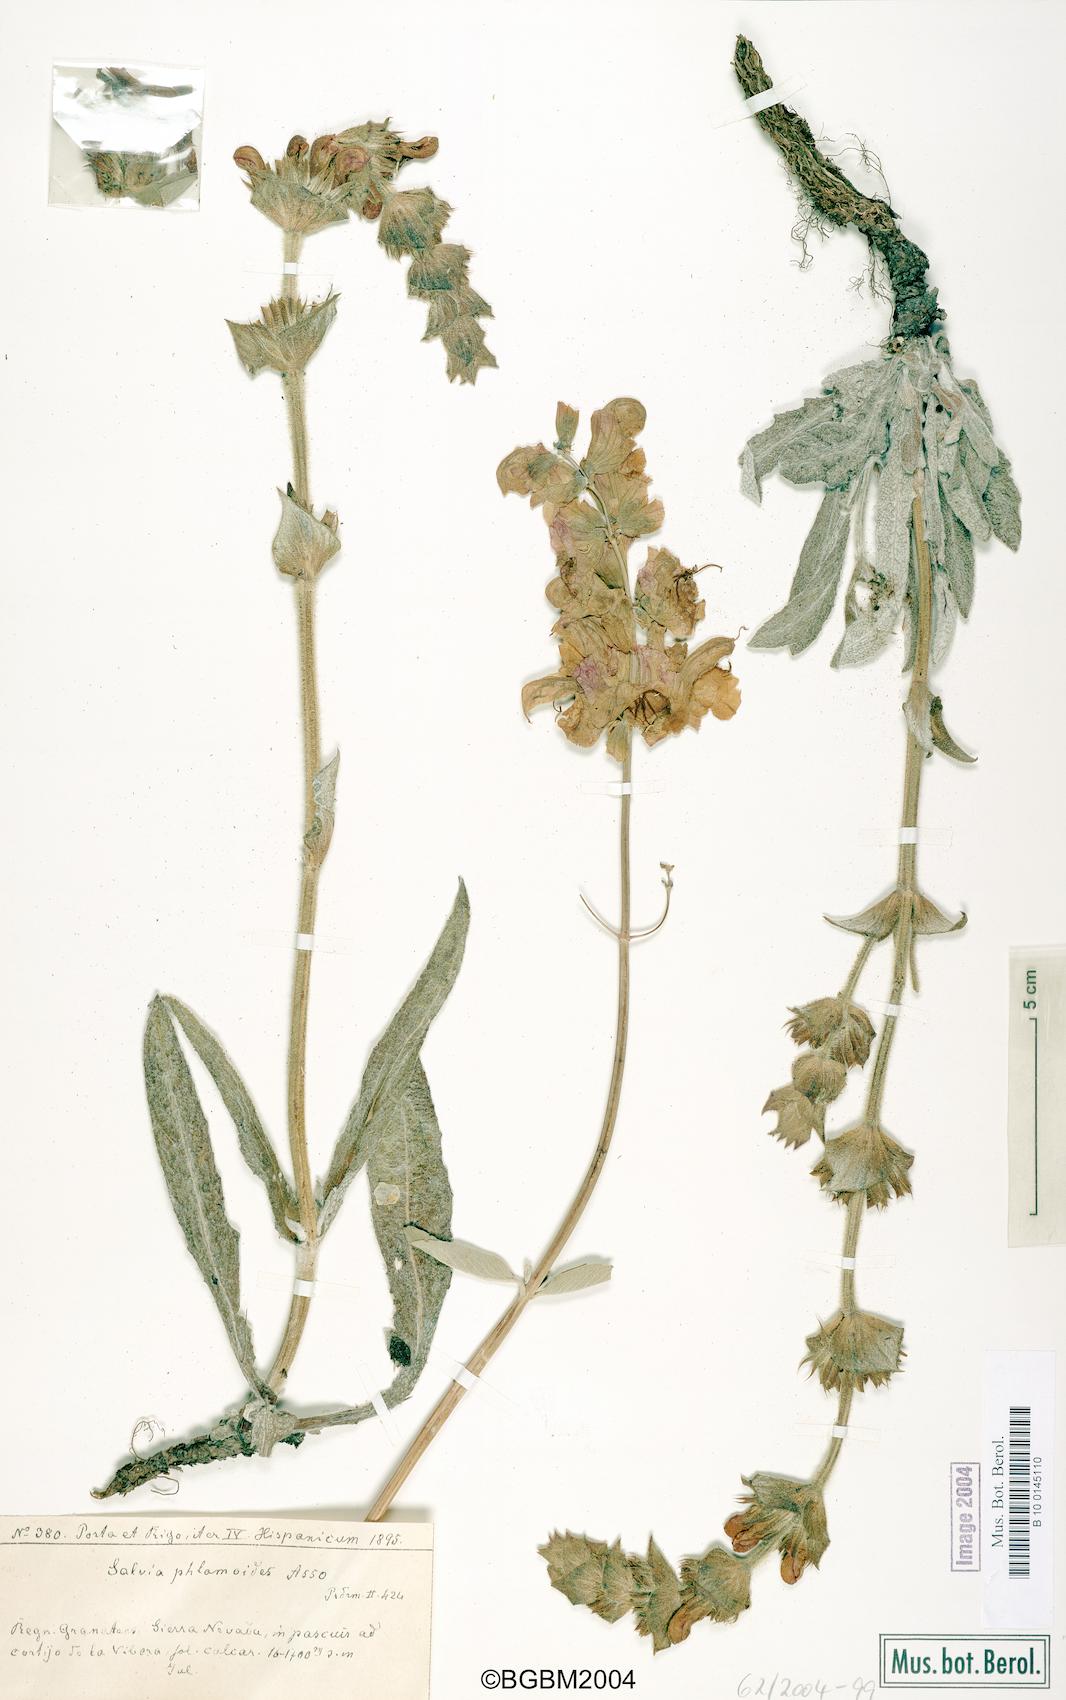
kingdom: Plantae
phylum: Tracheophyta
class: Magnoliopsida
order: Lamiales
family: Lamiaceae
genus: Salvia
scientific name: Salvia phlomoides
